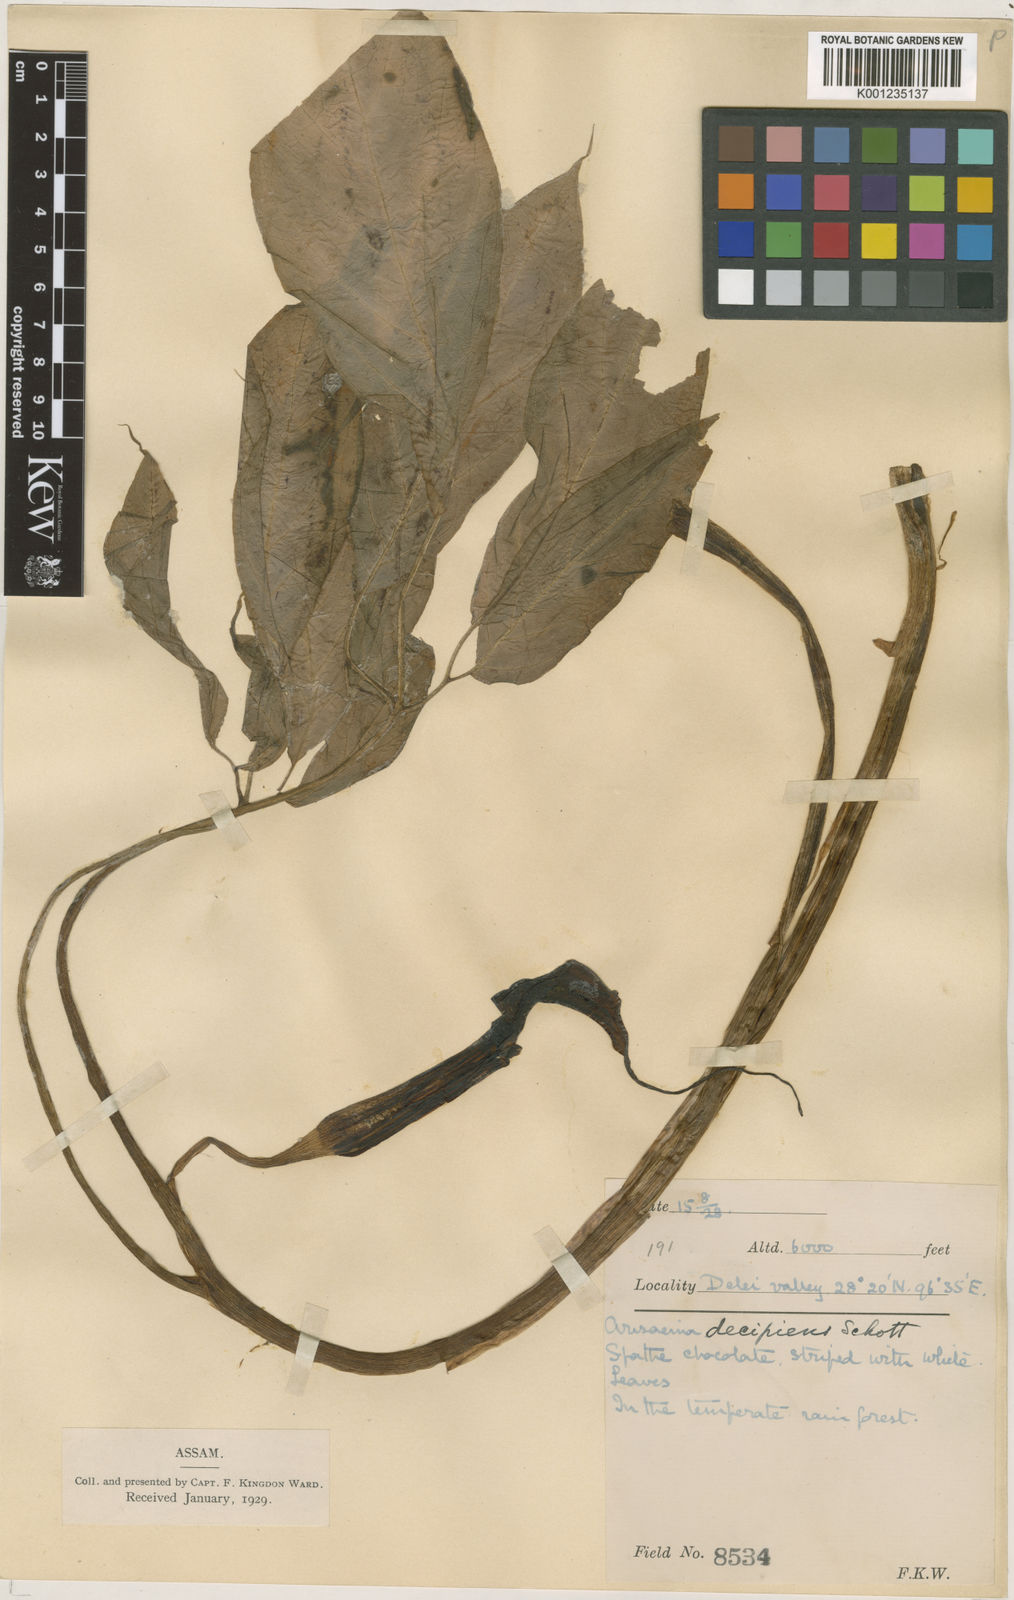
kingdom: Plantae
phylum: Tracheophyta
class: Liliopsida
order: Alismatales
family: Araceae
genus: Arisaema
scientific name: Arisaema decipiens
